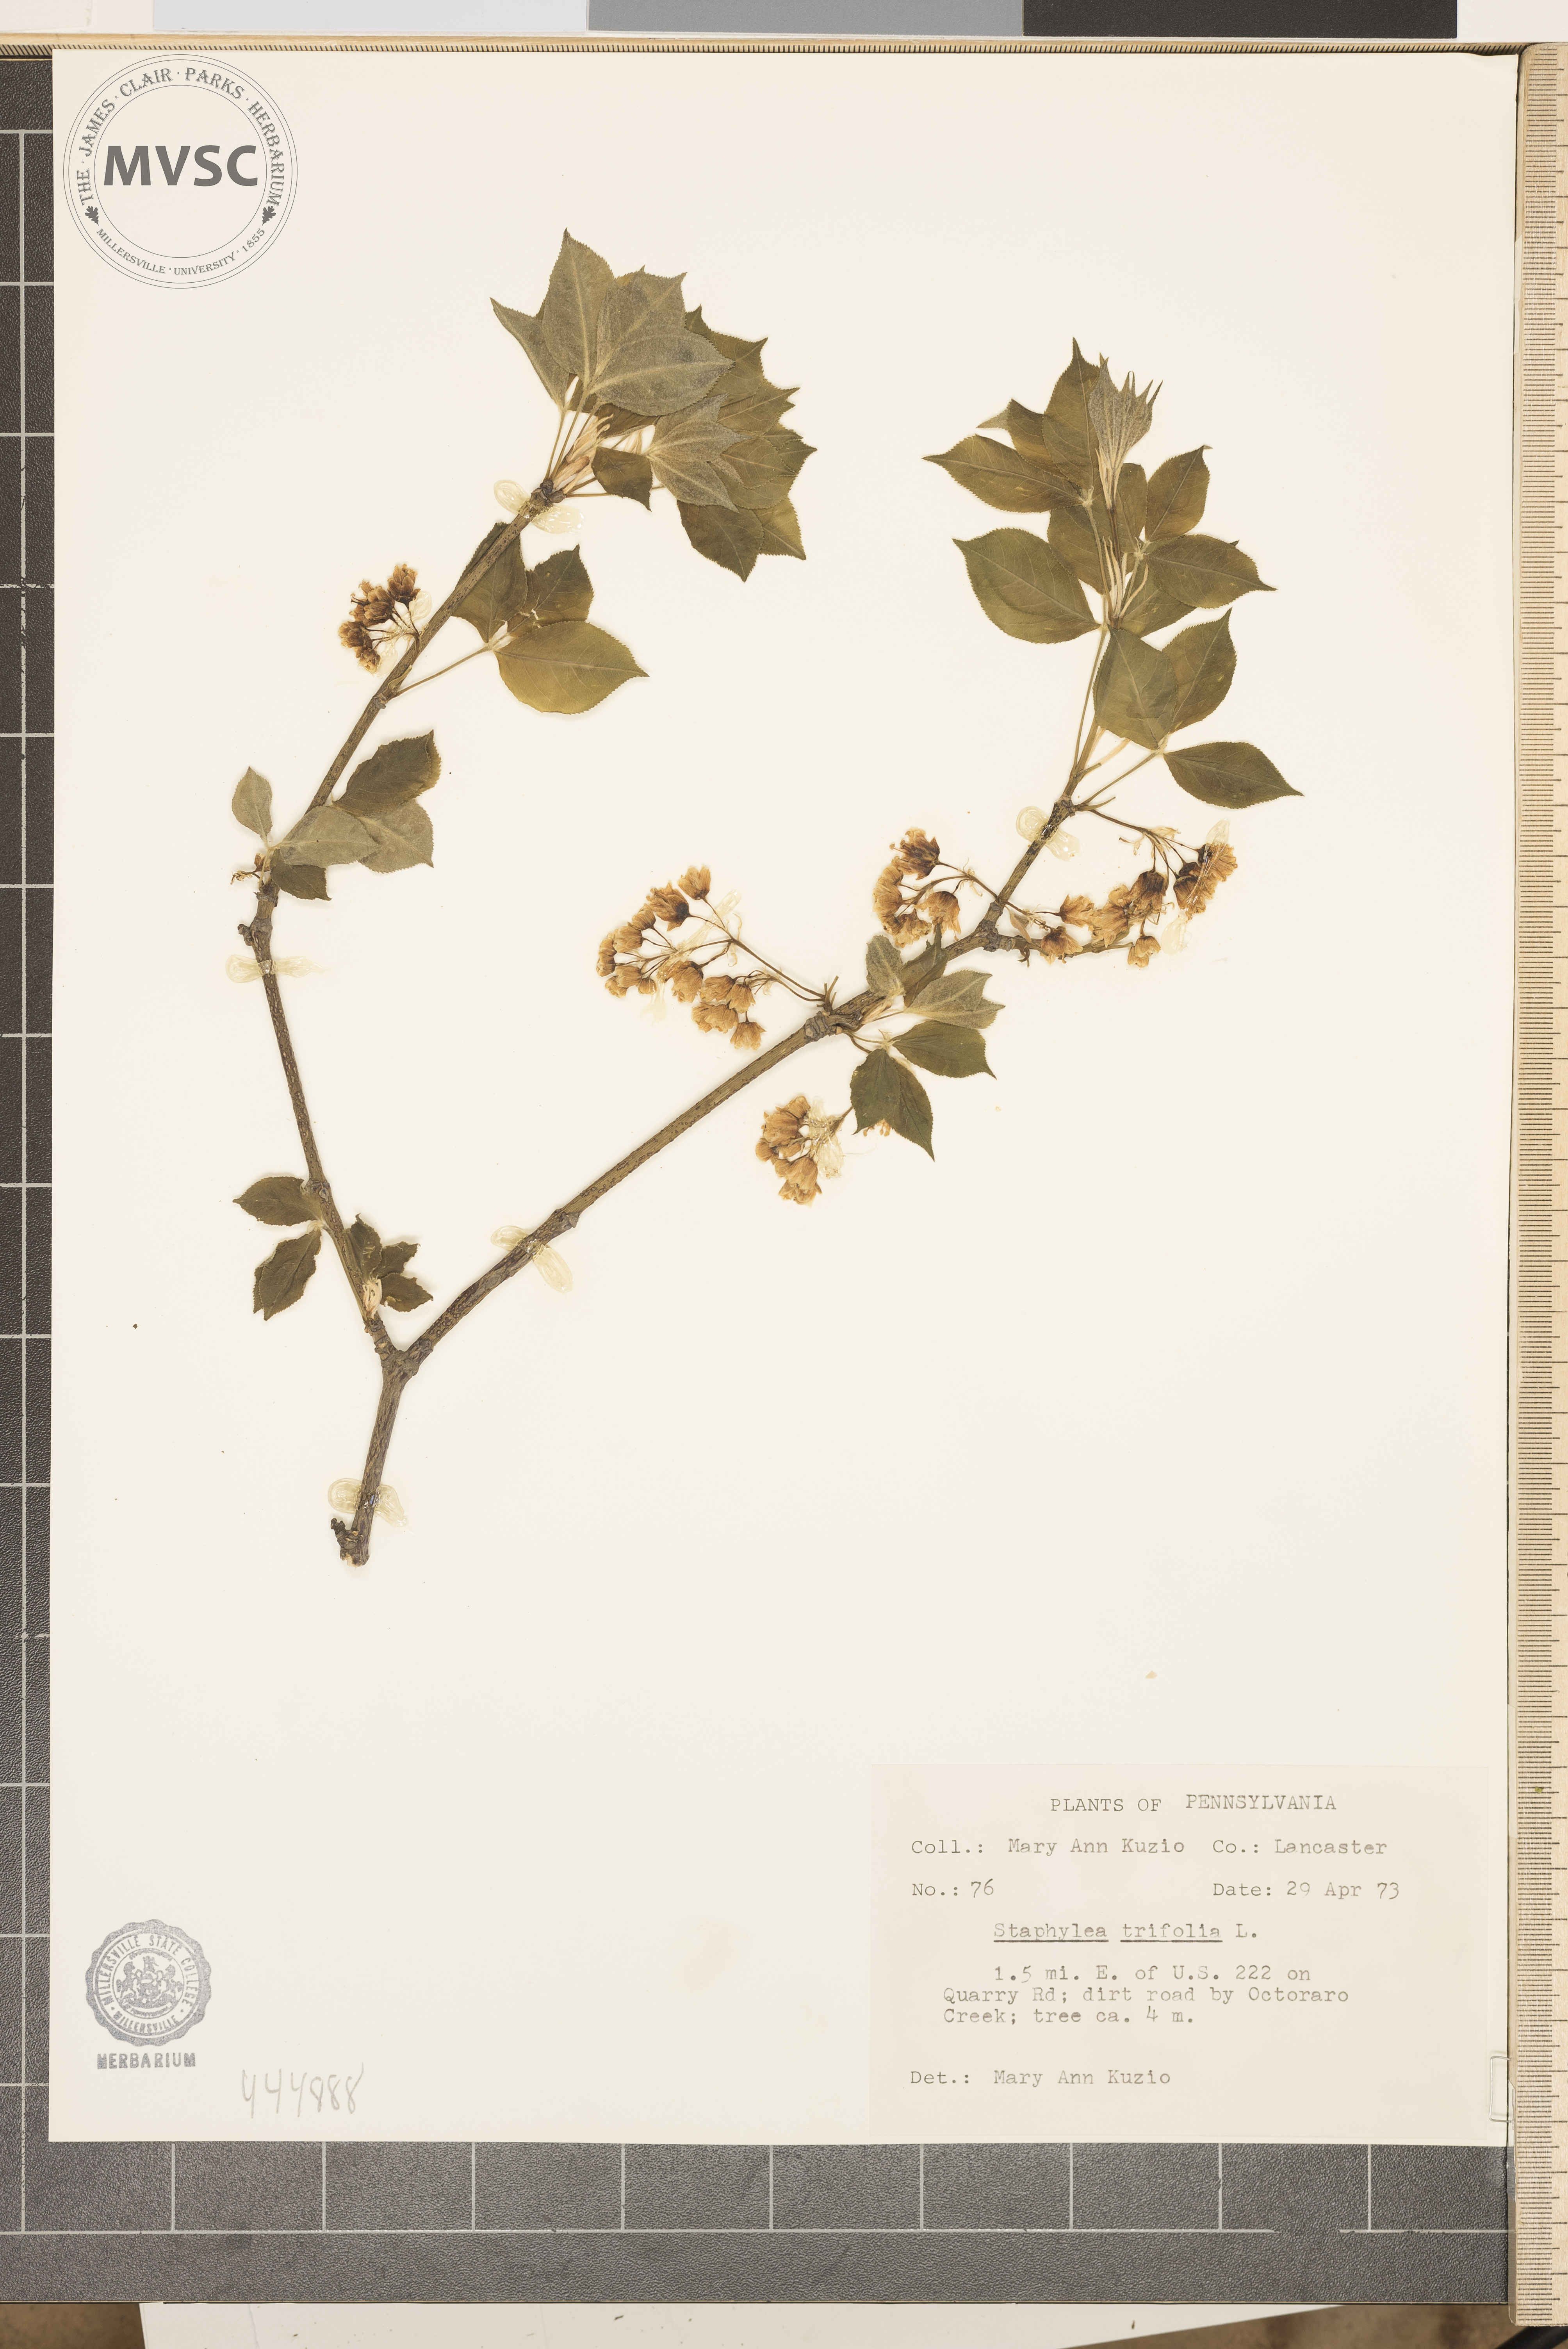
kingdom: Plantae
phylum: Tracheophyta
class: Magnoliopsida
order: Crossosomatales
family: Staphyleaceae
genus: Staphylea
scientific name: Staphylea trifolia
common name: American bladdernut
